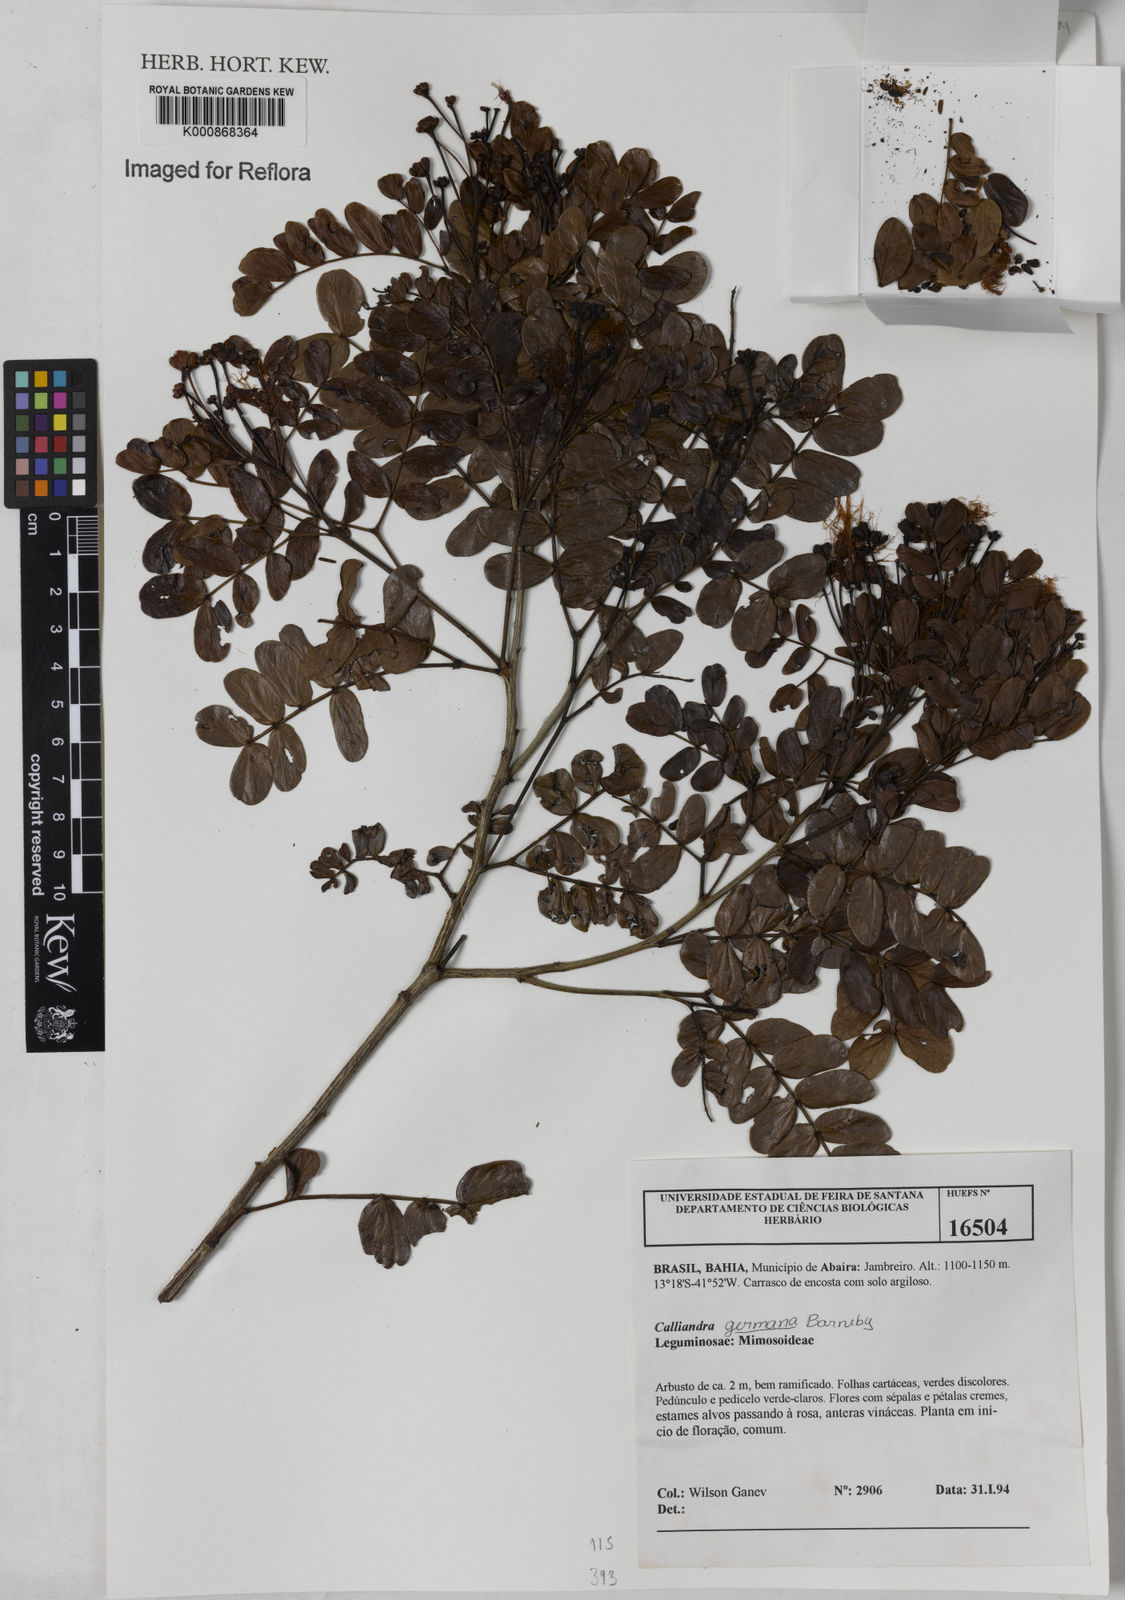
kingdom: Plantae
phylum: Tracheophyta
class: Magnoliopsida
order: Fabales
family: Fabaceae
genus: Calliandra
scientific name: Calliandra germana
